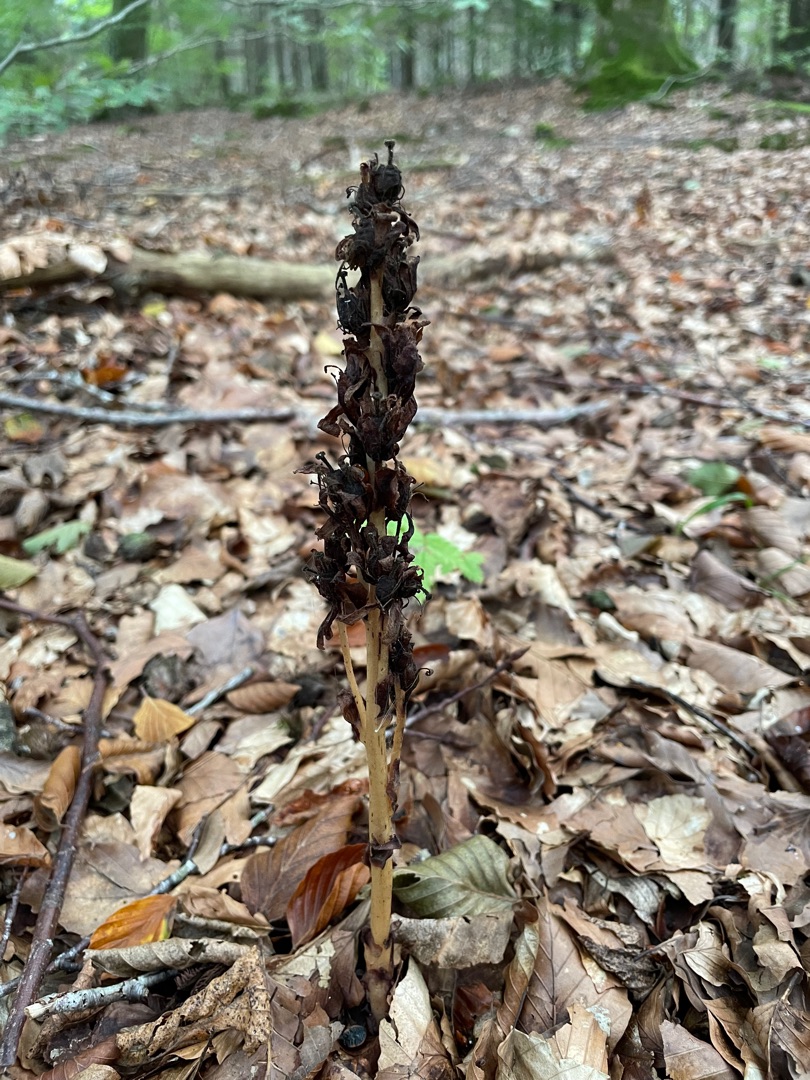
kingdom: Plantae
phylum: Tracheophyta
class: Magnoliopsida
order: Ericales
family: Ericaceae
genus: Hypopitys
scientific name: Hypopitys monotropa
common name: Snylterod
